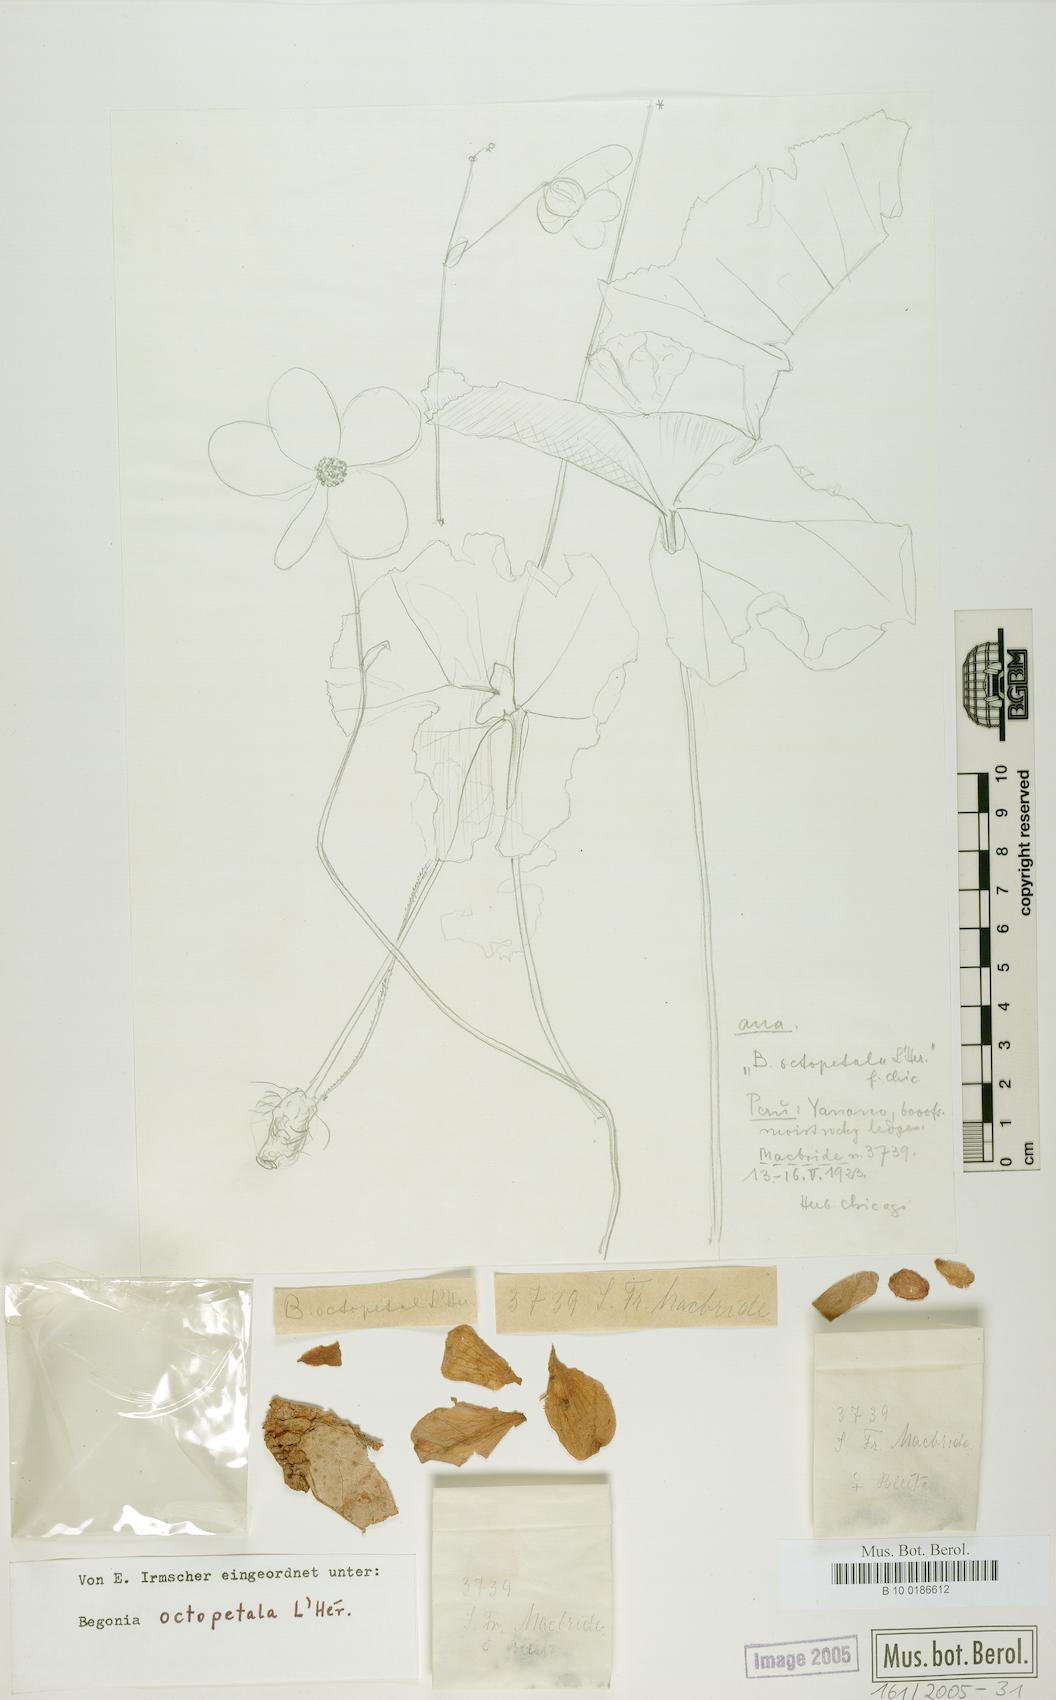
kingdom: Plantae
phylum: Tracheophyta
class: Magnoliopsida
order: Cucurbitales
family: Begoniaceae
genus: Begonia
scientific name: Begonia octopetala
